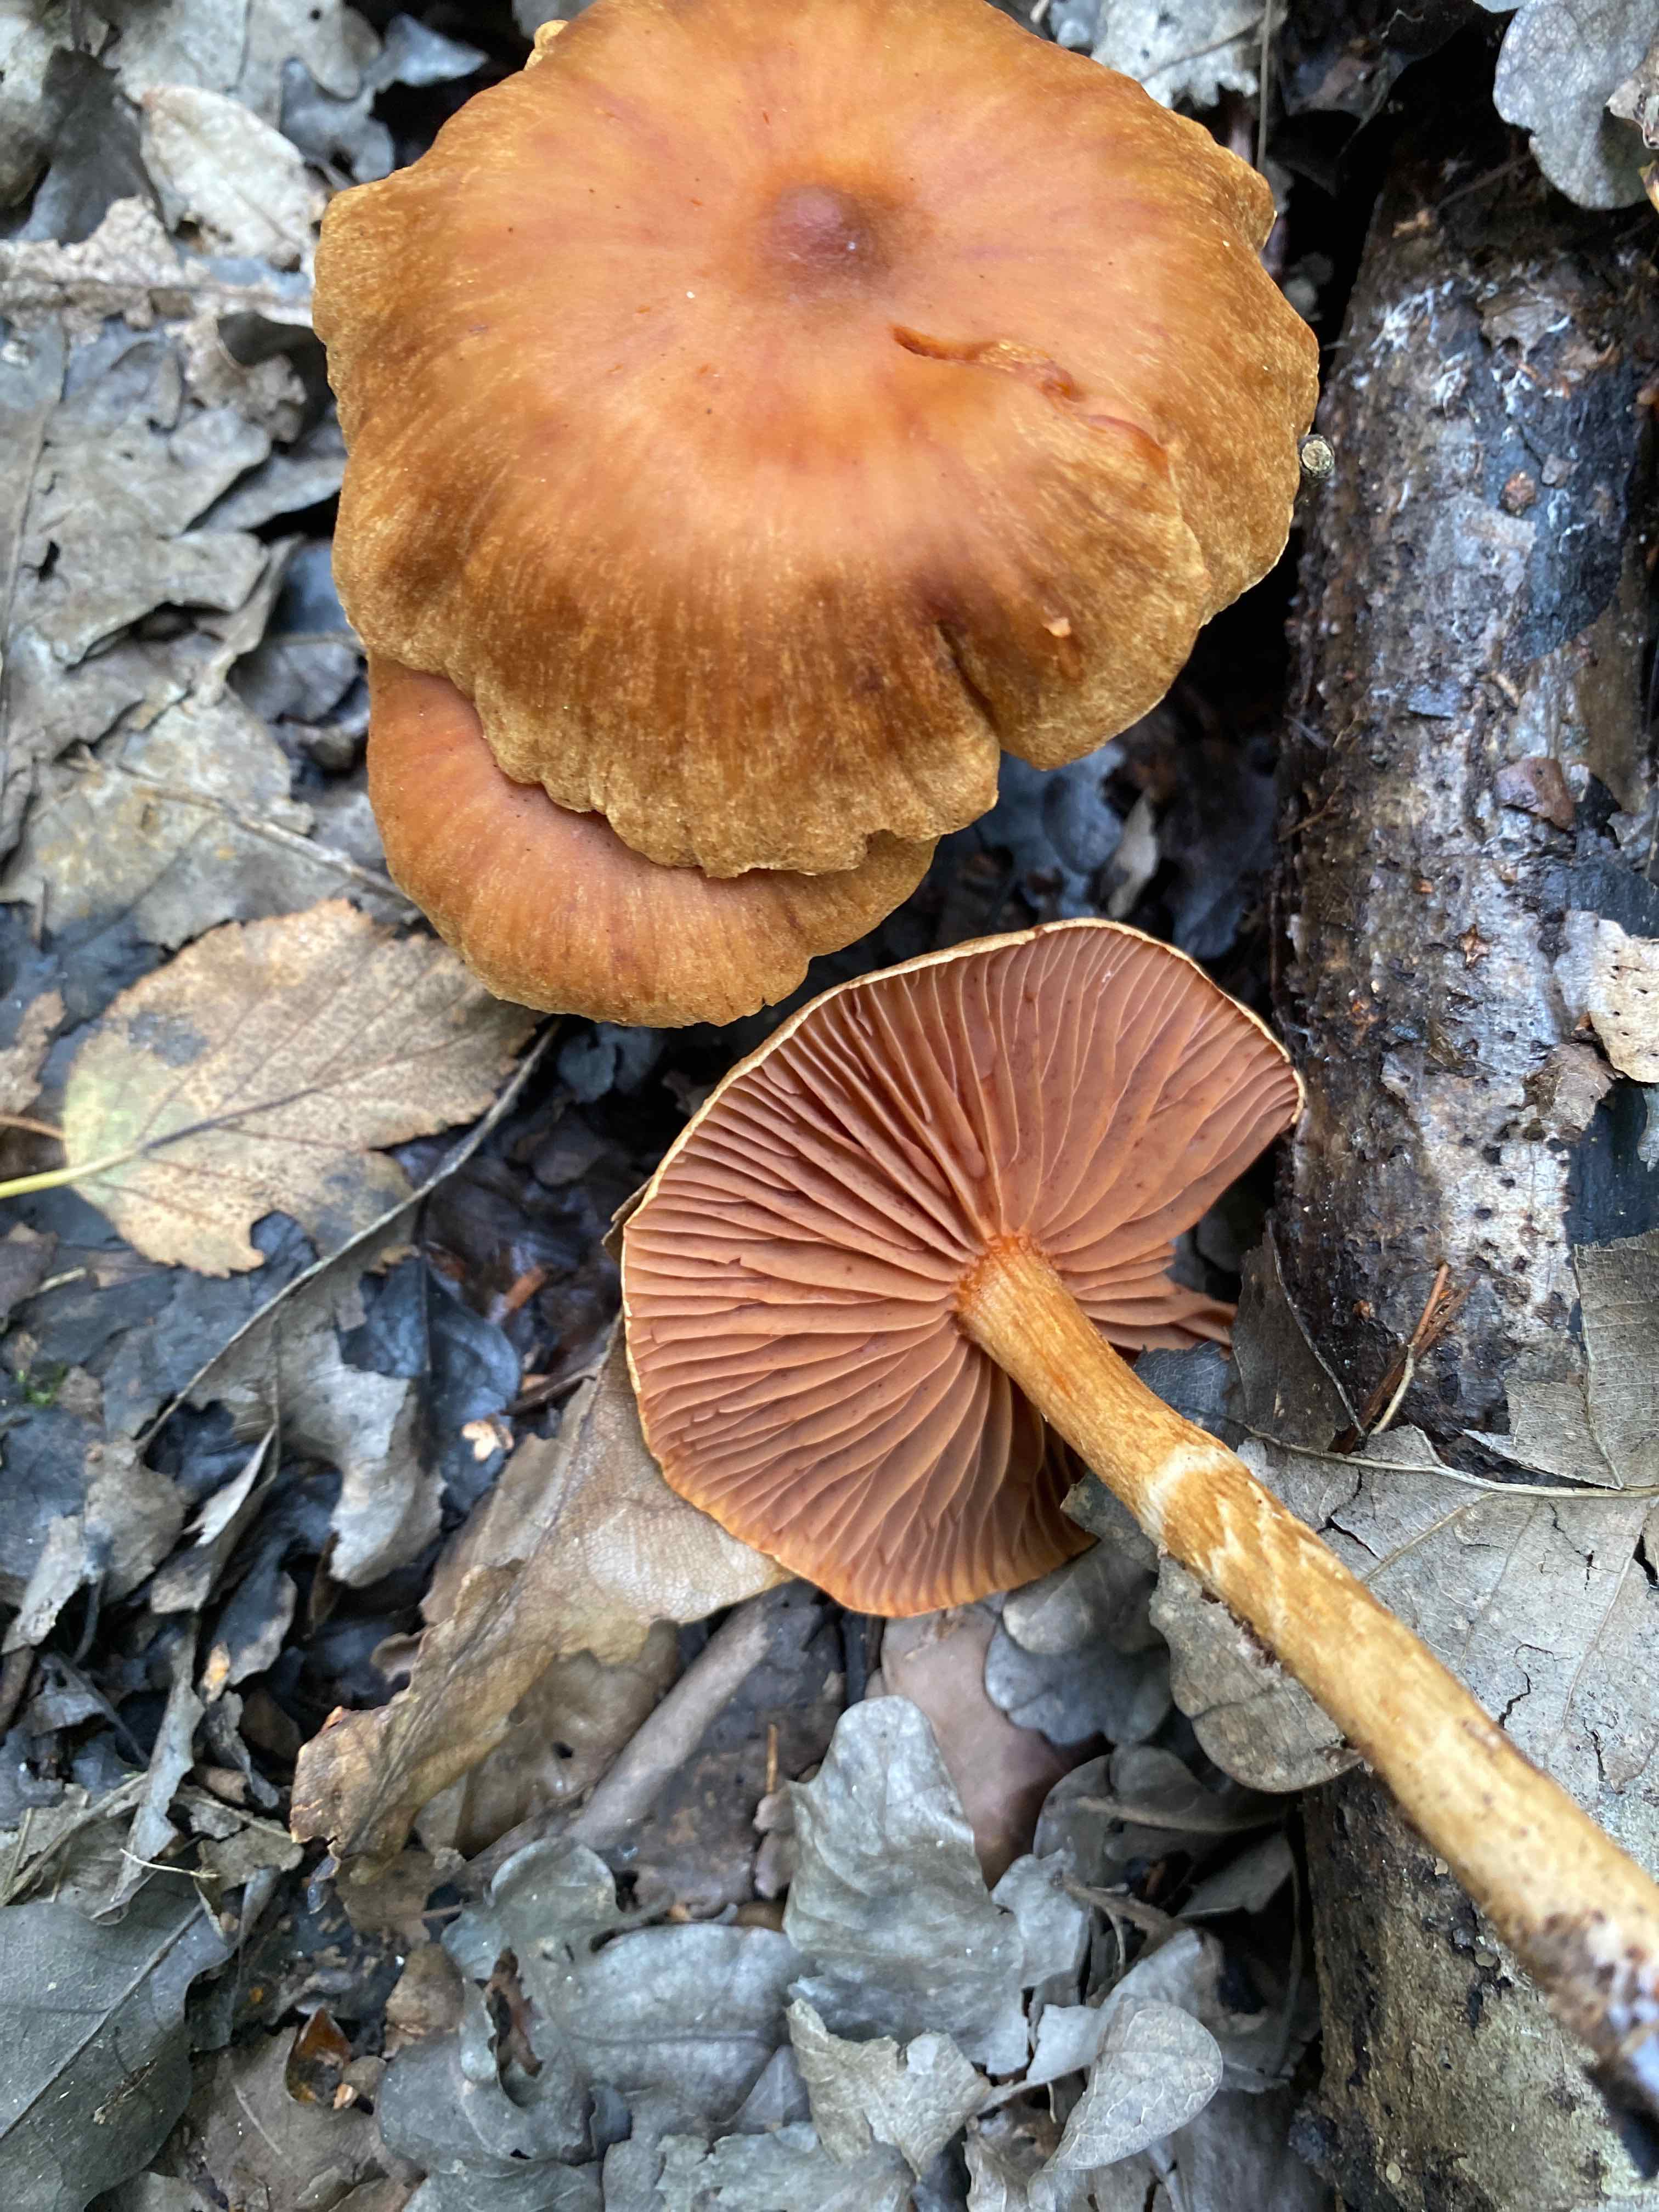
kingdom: Fungi
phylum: Basidiomycota
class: Agaricomycetes
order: Agaricales
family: Cortinariaceae
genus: Cortinarius
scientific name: Cortinarius
